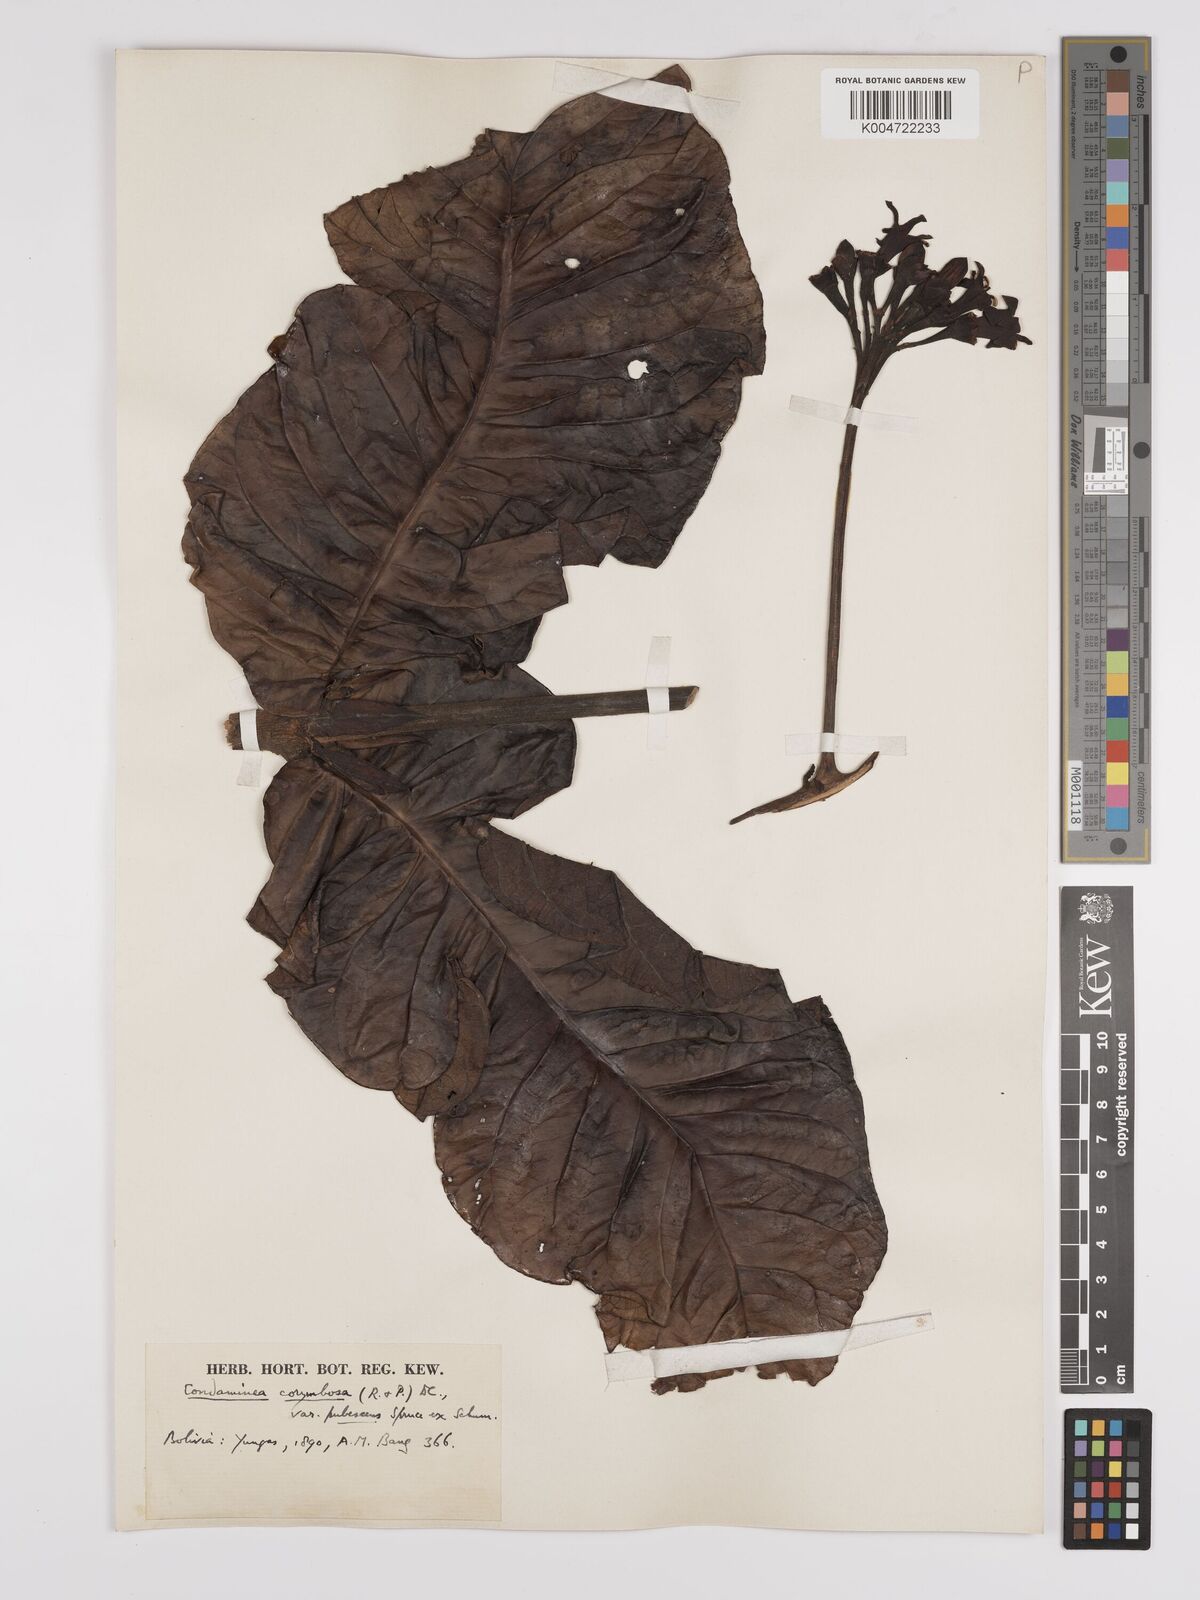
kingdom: Plantae
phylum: Tracheophyta
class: Magnoliopsida
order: Gentianales
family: Rubiaceae
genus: Condaminea
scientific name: Condaminea corymbosa
